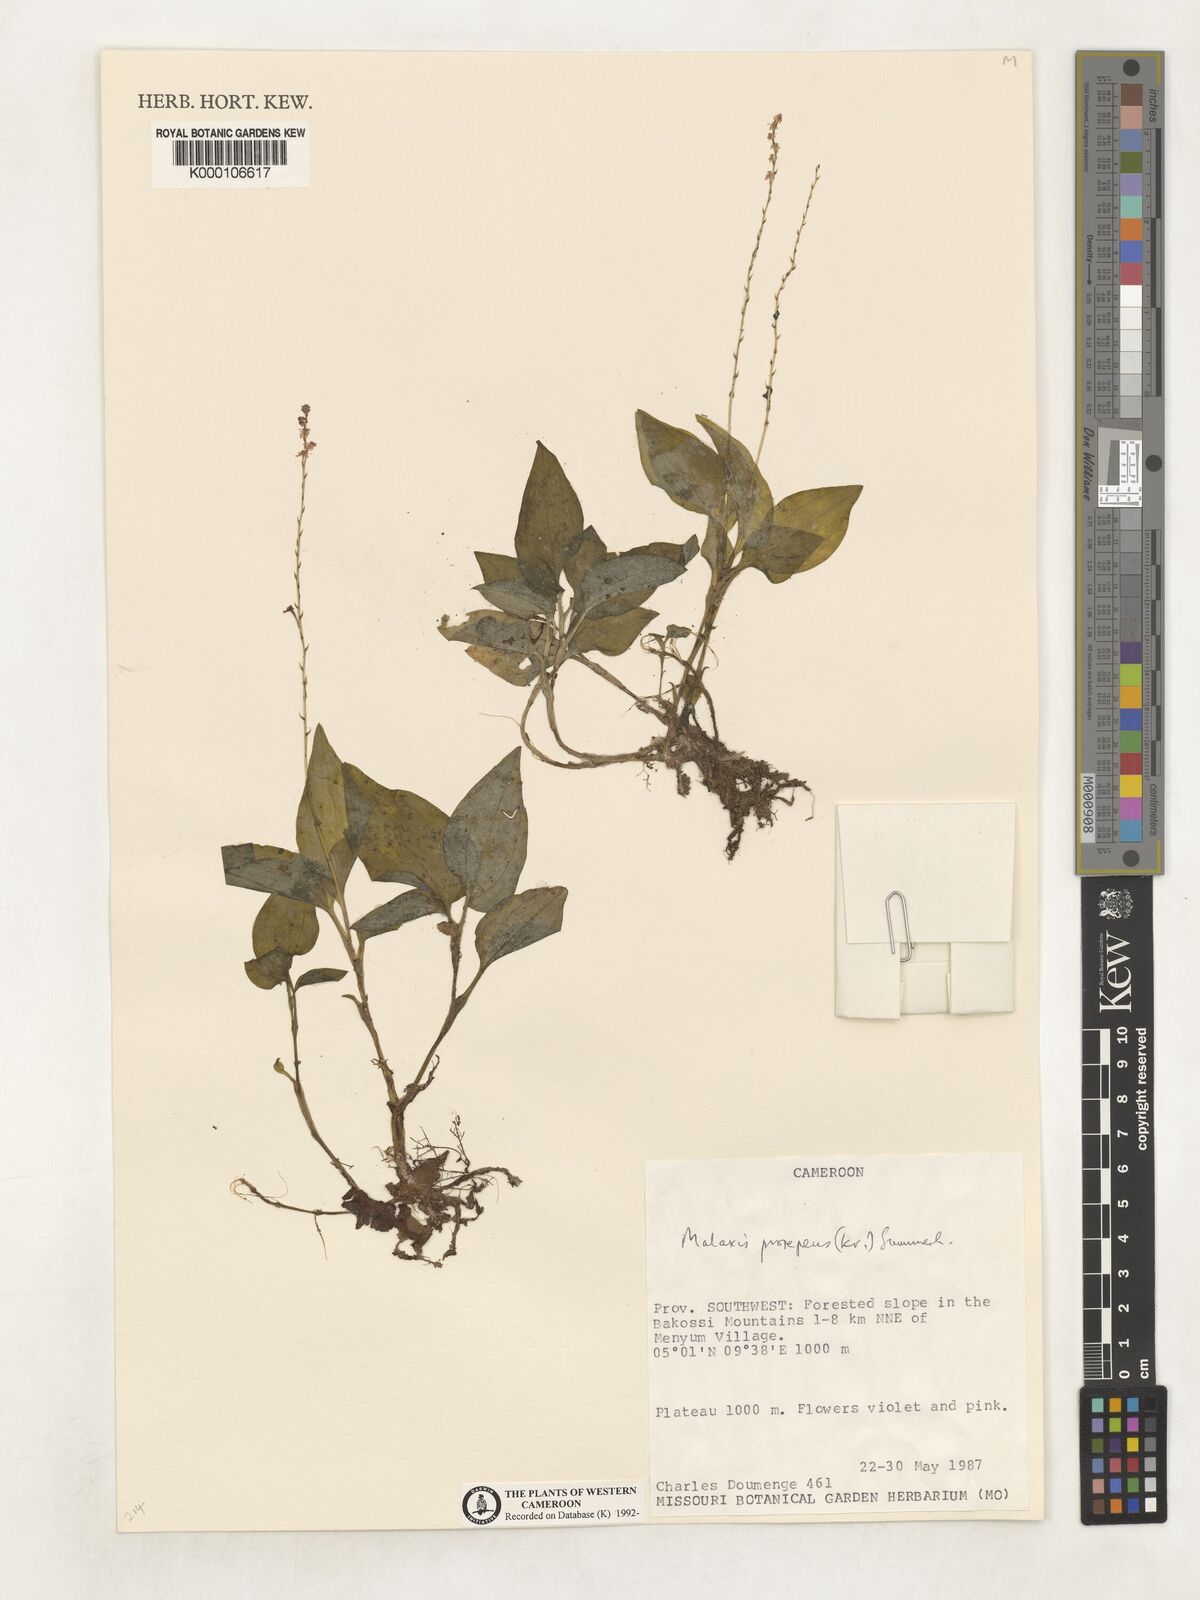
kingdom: Plantae
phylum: Tracheophyta
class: Liliopsida
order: Asparagales
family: Orchidaceae
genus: Malaxis
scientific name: Malaxis prorepens
